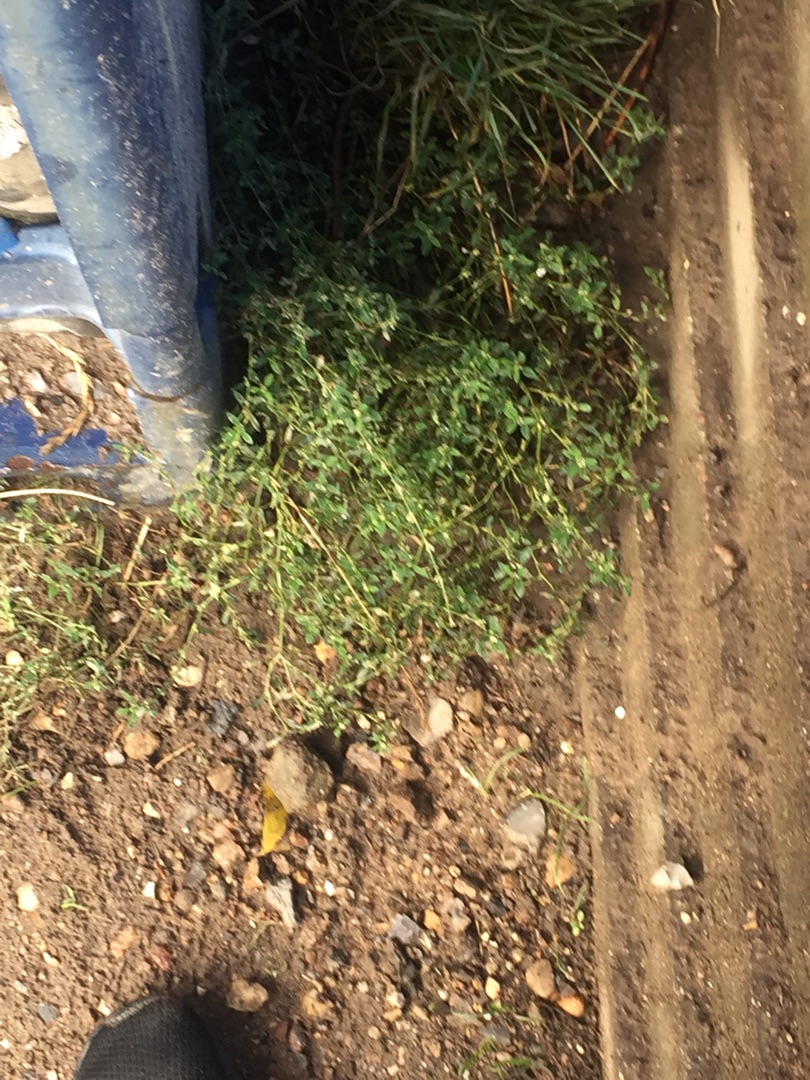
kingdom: Plantae
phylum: Tracheophyta
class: Magnoliopsida
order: Caryophyllales
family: Polygonaceae
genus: Polygonum
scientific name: Polygonum arenastrum
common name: Liggende vej-pileurt
